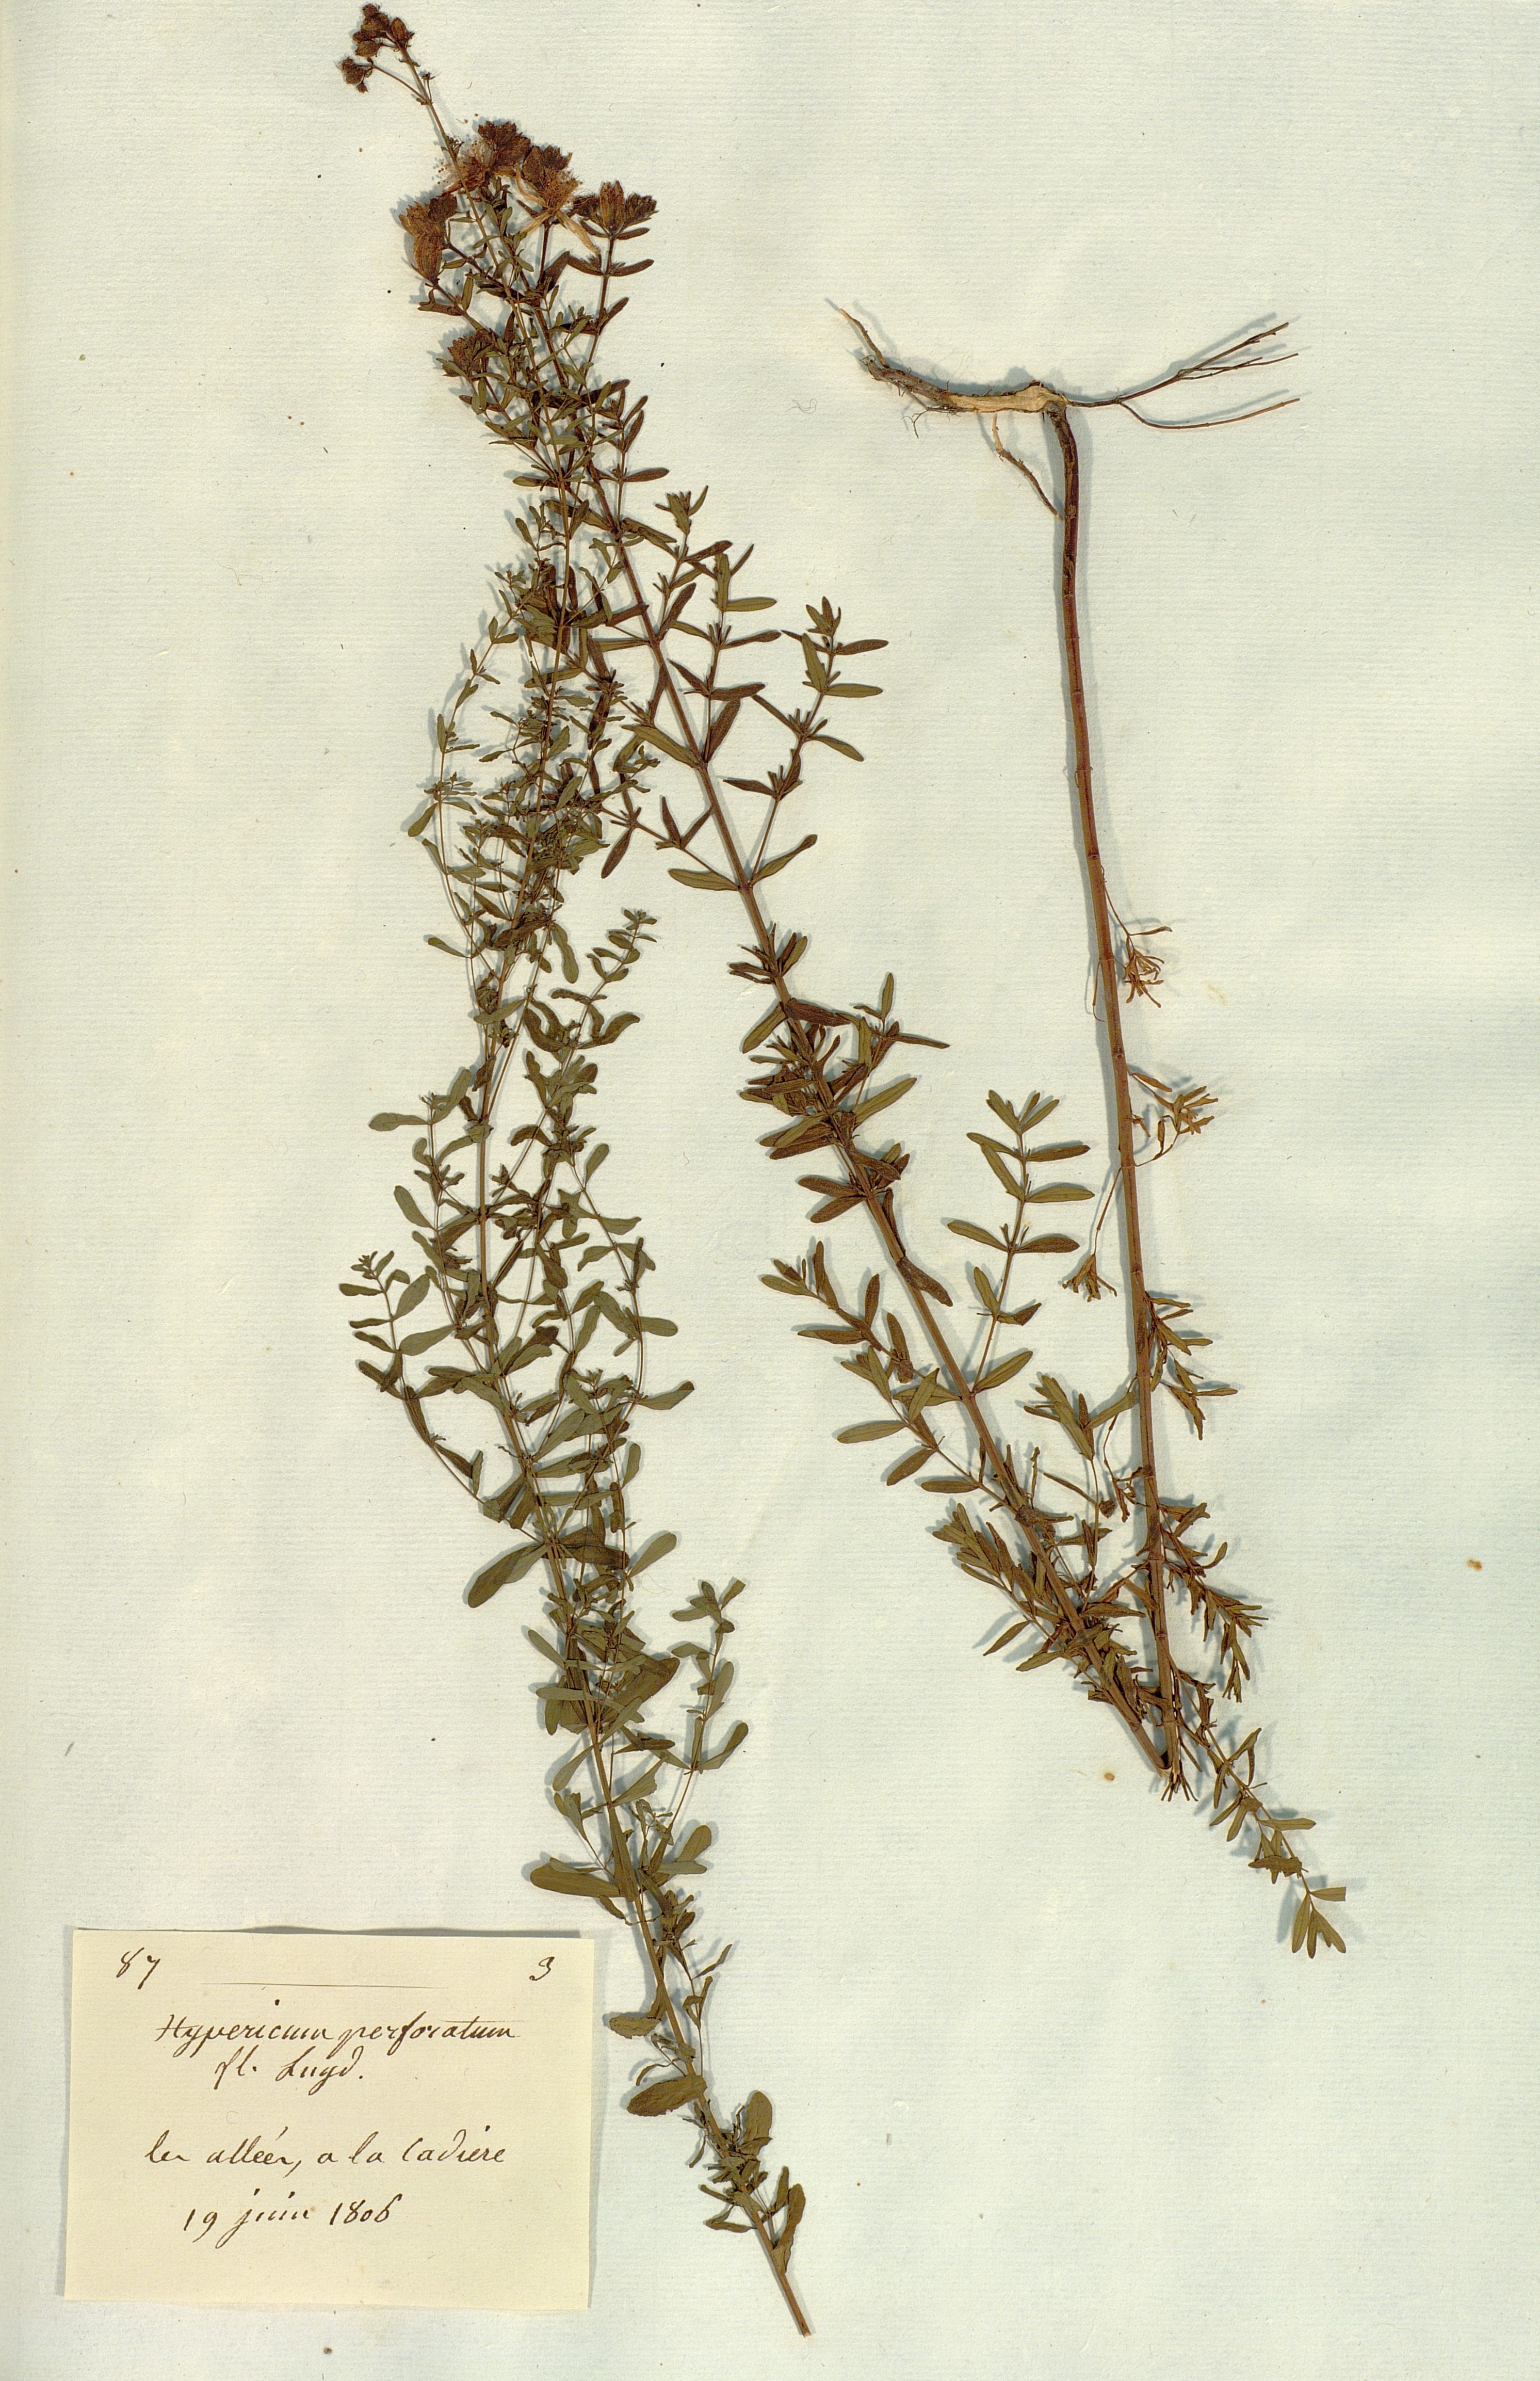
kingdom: Plantae
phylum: Tracheophyta
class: Magnoliopsida
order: Malpighiales
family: Hypericaceae
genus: Hypericum
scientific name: Hypericum perforatum
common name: Common st. johnswort
